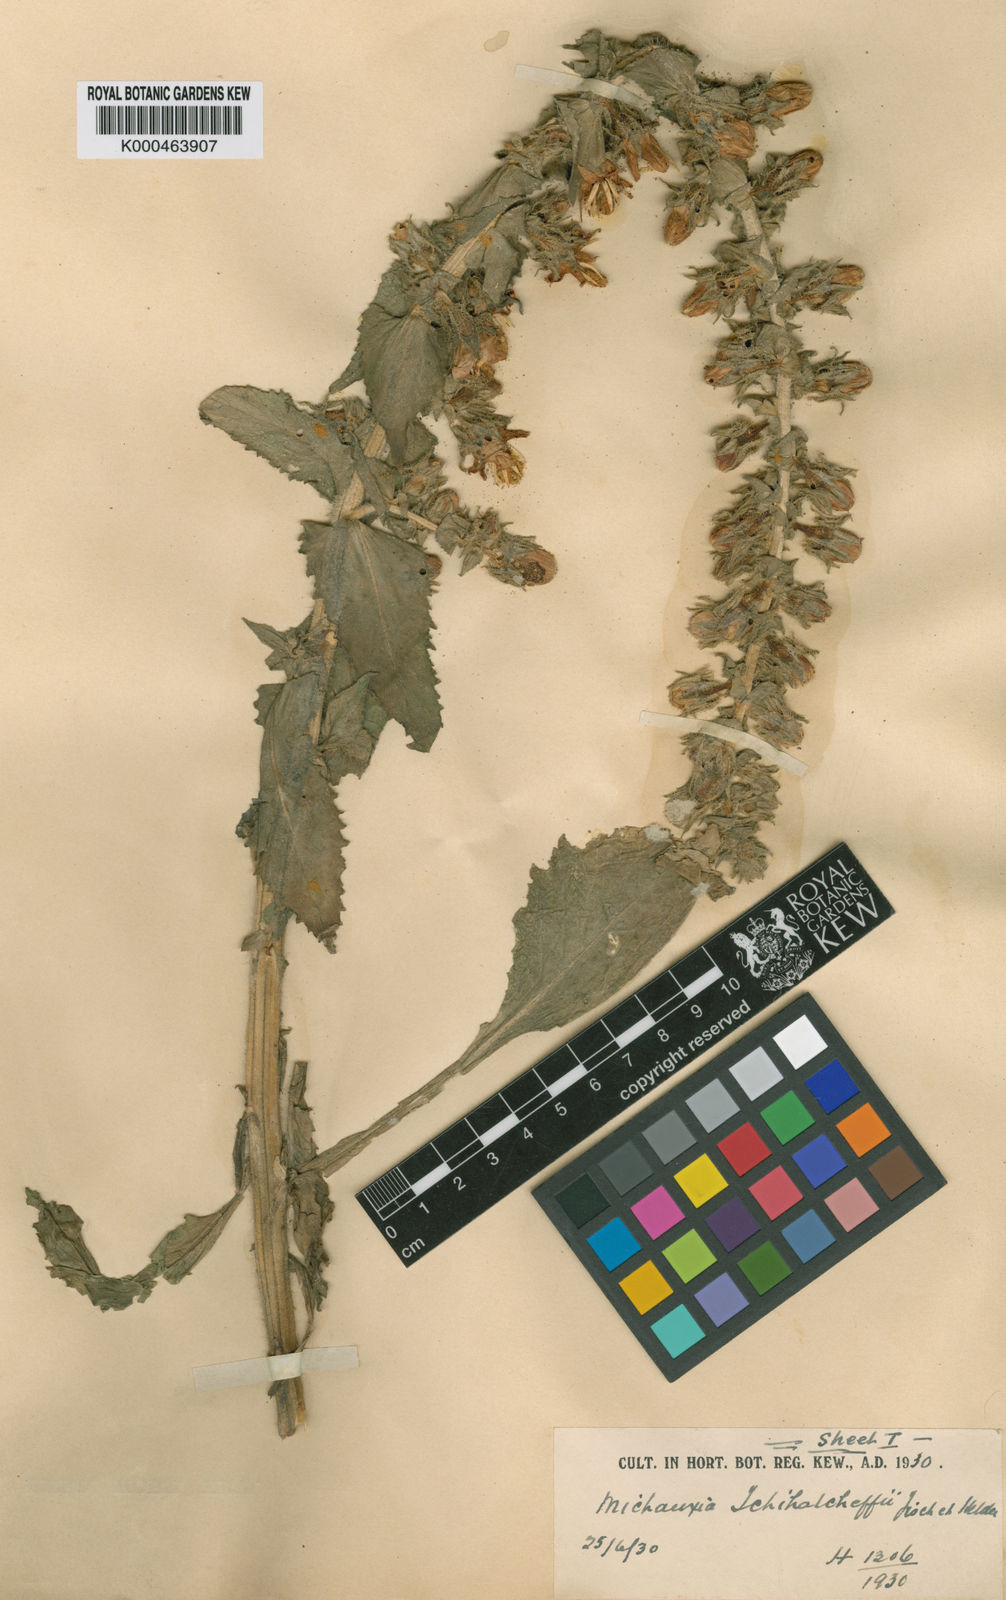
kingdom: Plantae
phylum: Tracheophyta
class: Magnoliopsida
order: Asterales
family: Campanulaceae
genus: Michauxia
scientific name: Michauxia tchihatcheffii
